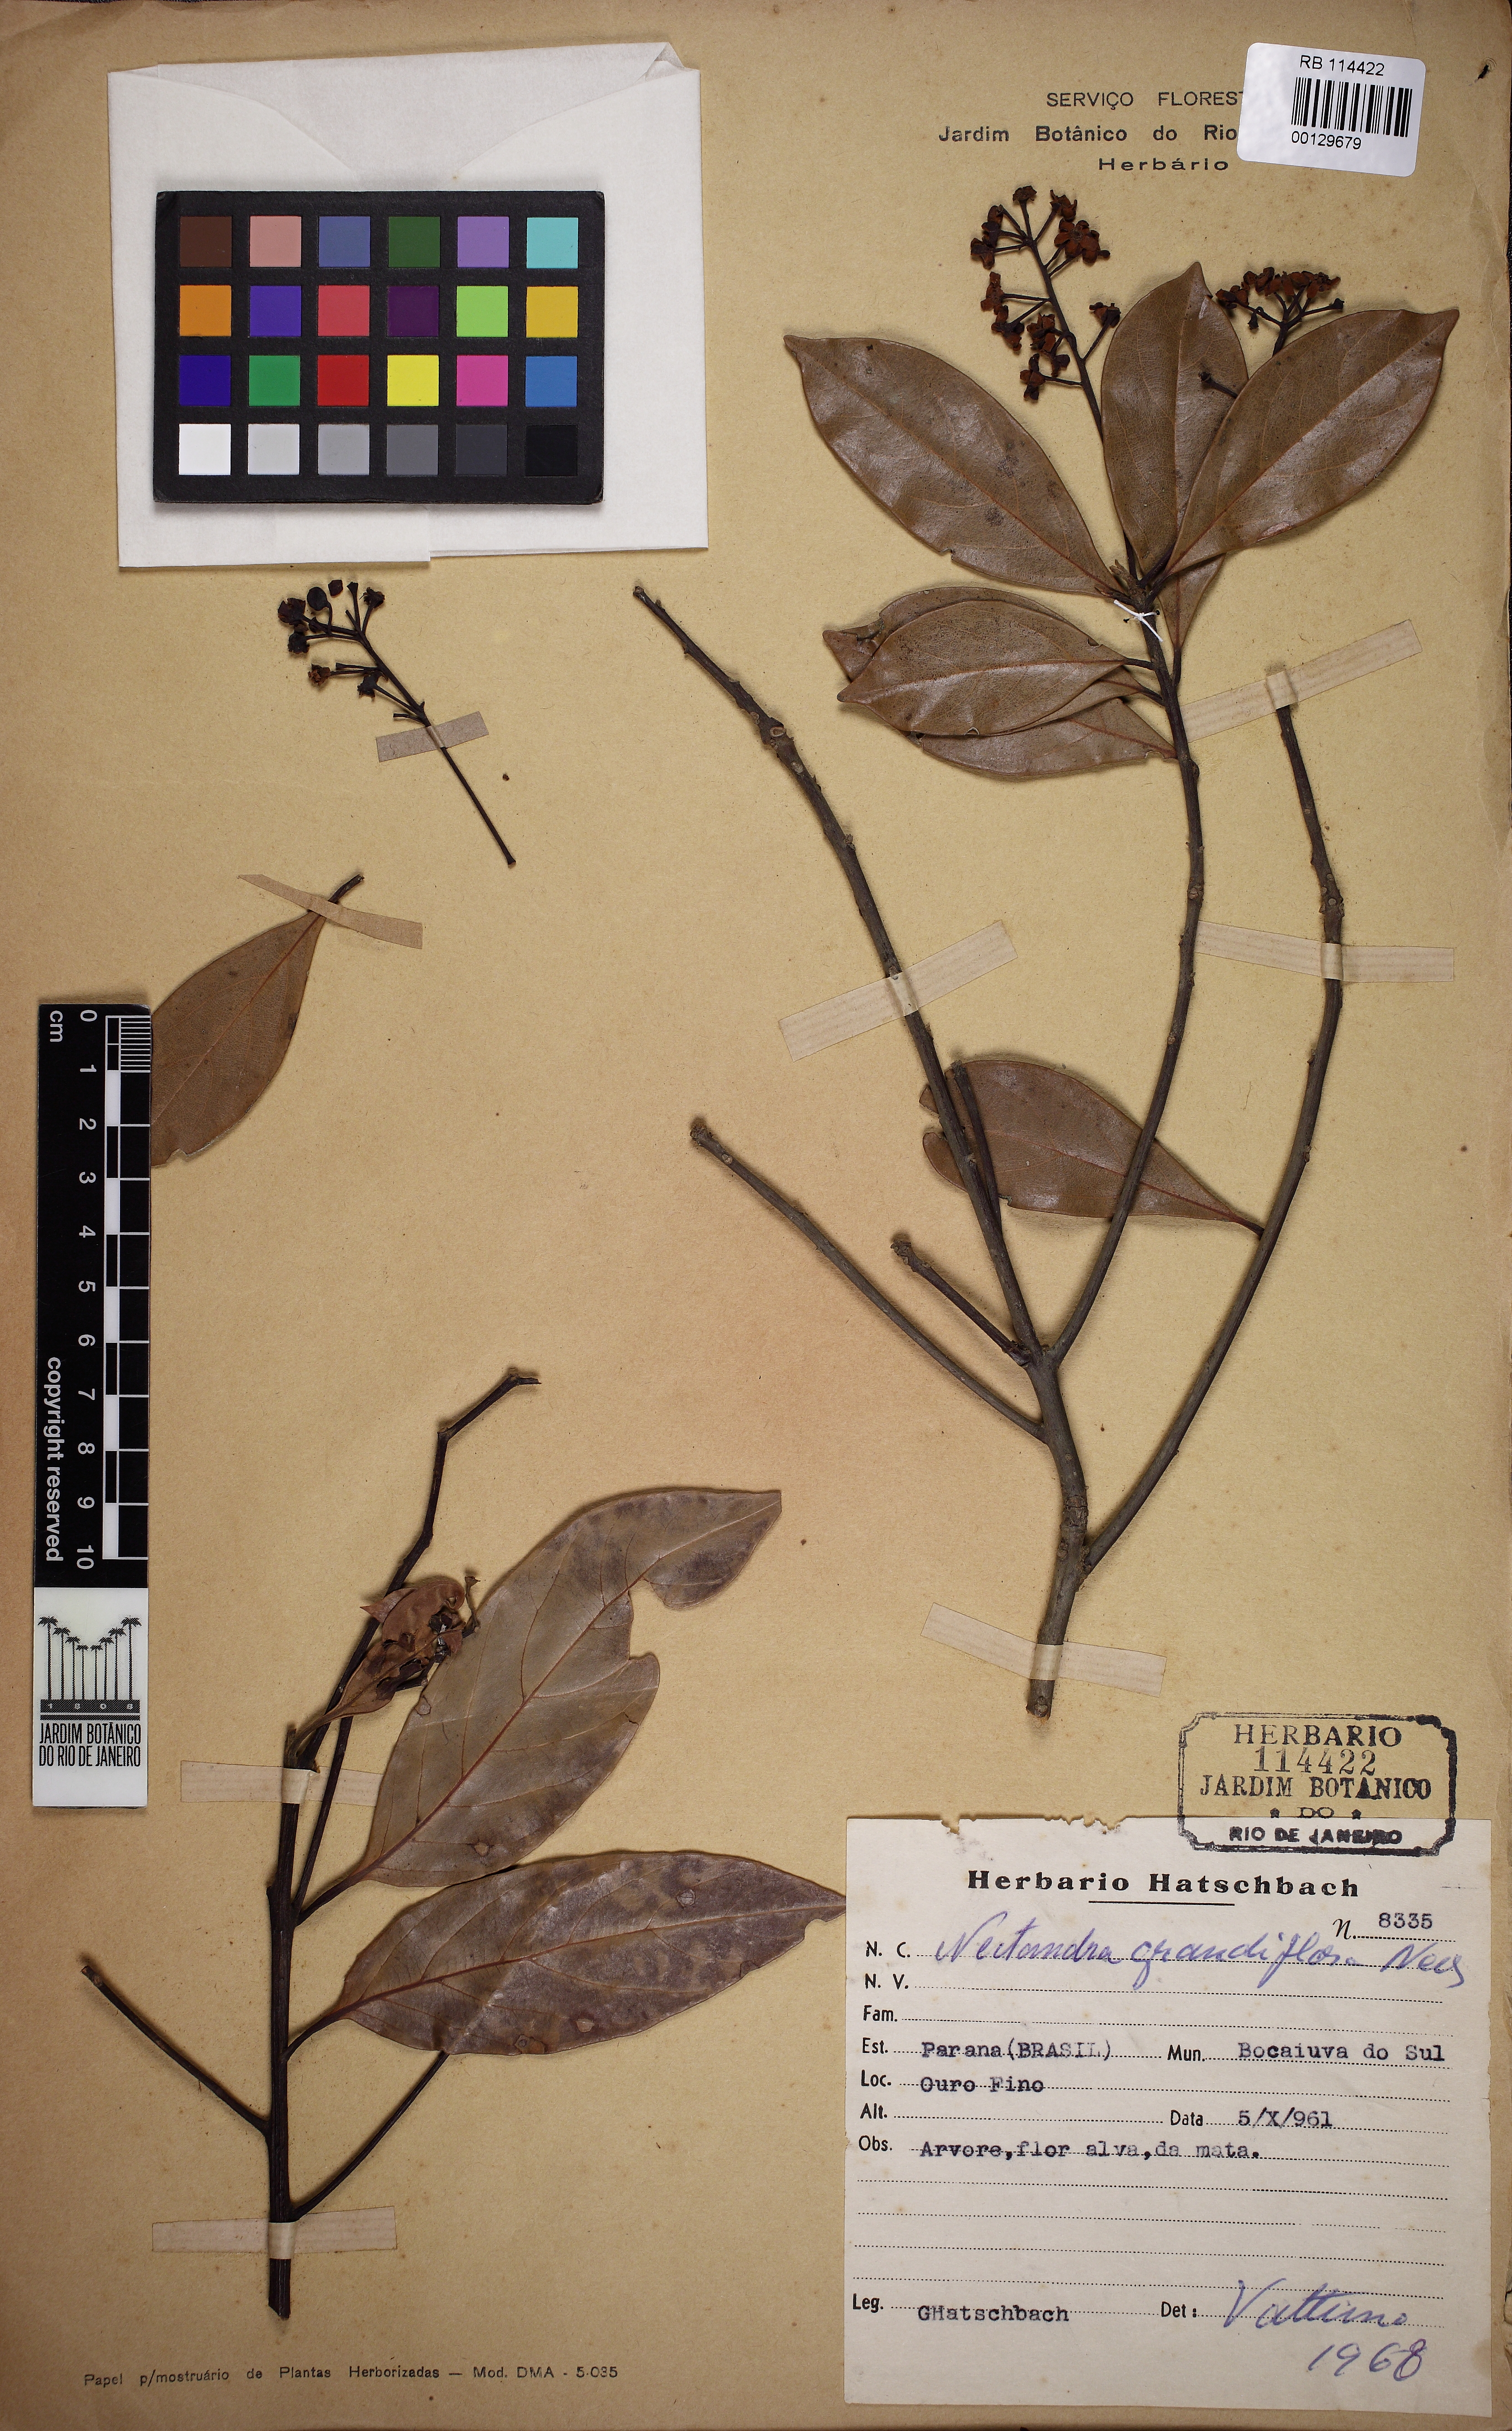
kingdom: Plantae
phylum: Tracheophyta
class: Magnoliopsida
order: Laurales
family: Lauraceae
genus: Nectandra
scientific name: Nectandra grandiflora
